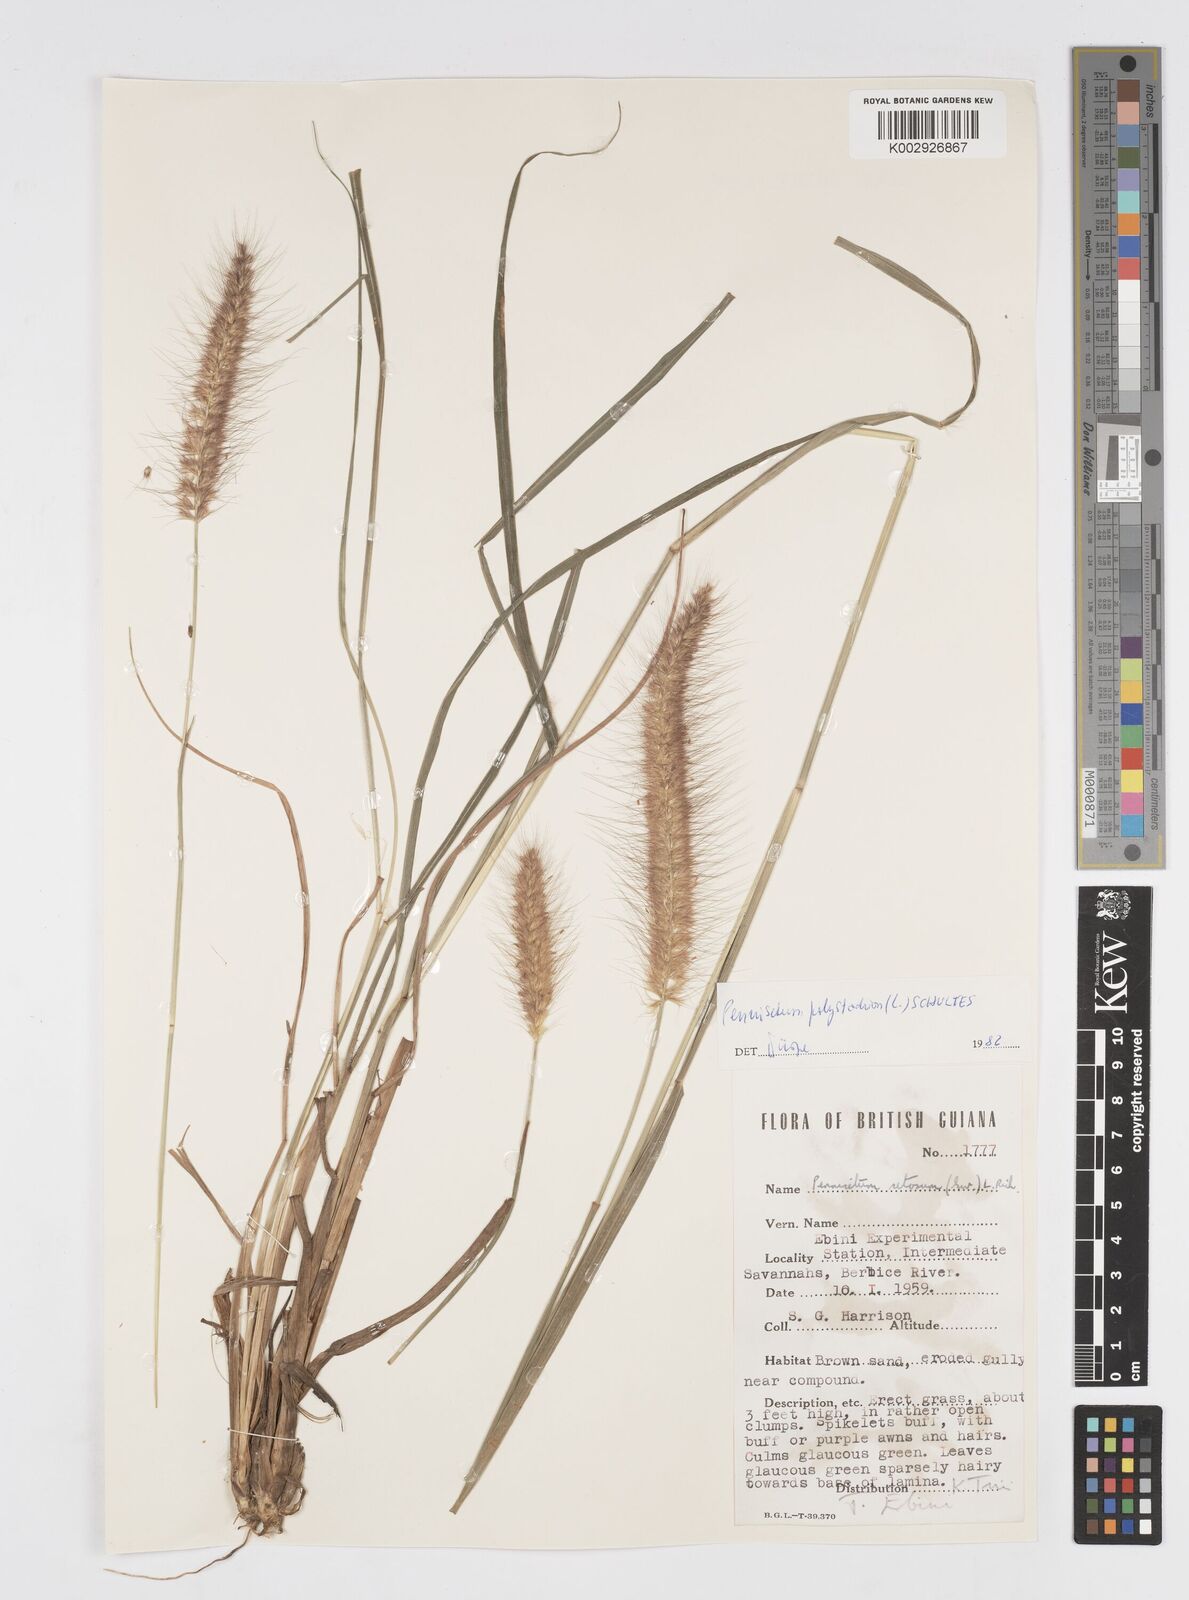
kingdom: Plantae
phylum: Tracheophyta
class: Liliopsida
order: Poales
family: Poaceae
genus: Cenchrus
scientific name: Cenchrus setosus
